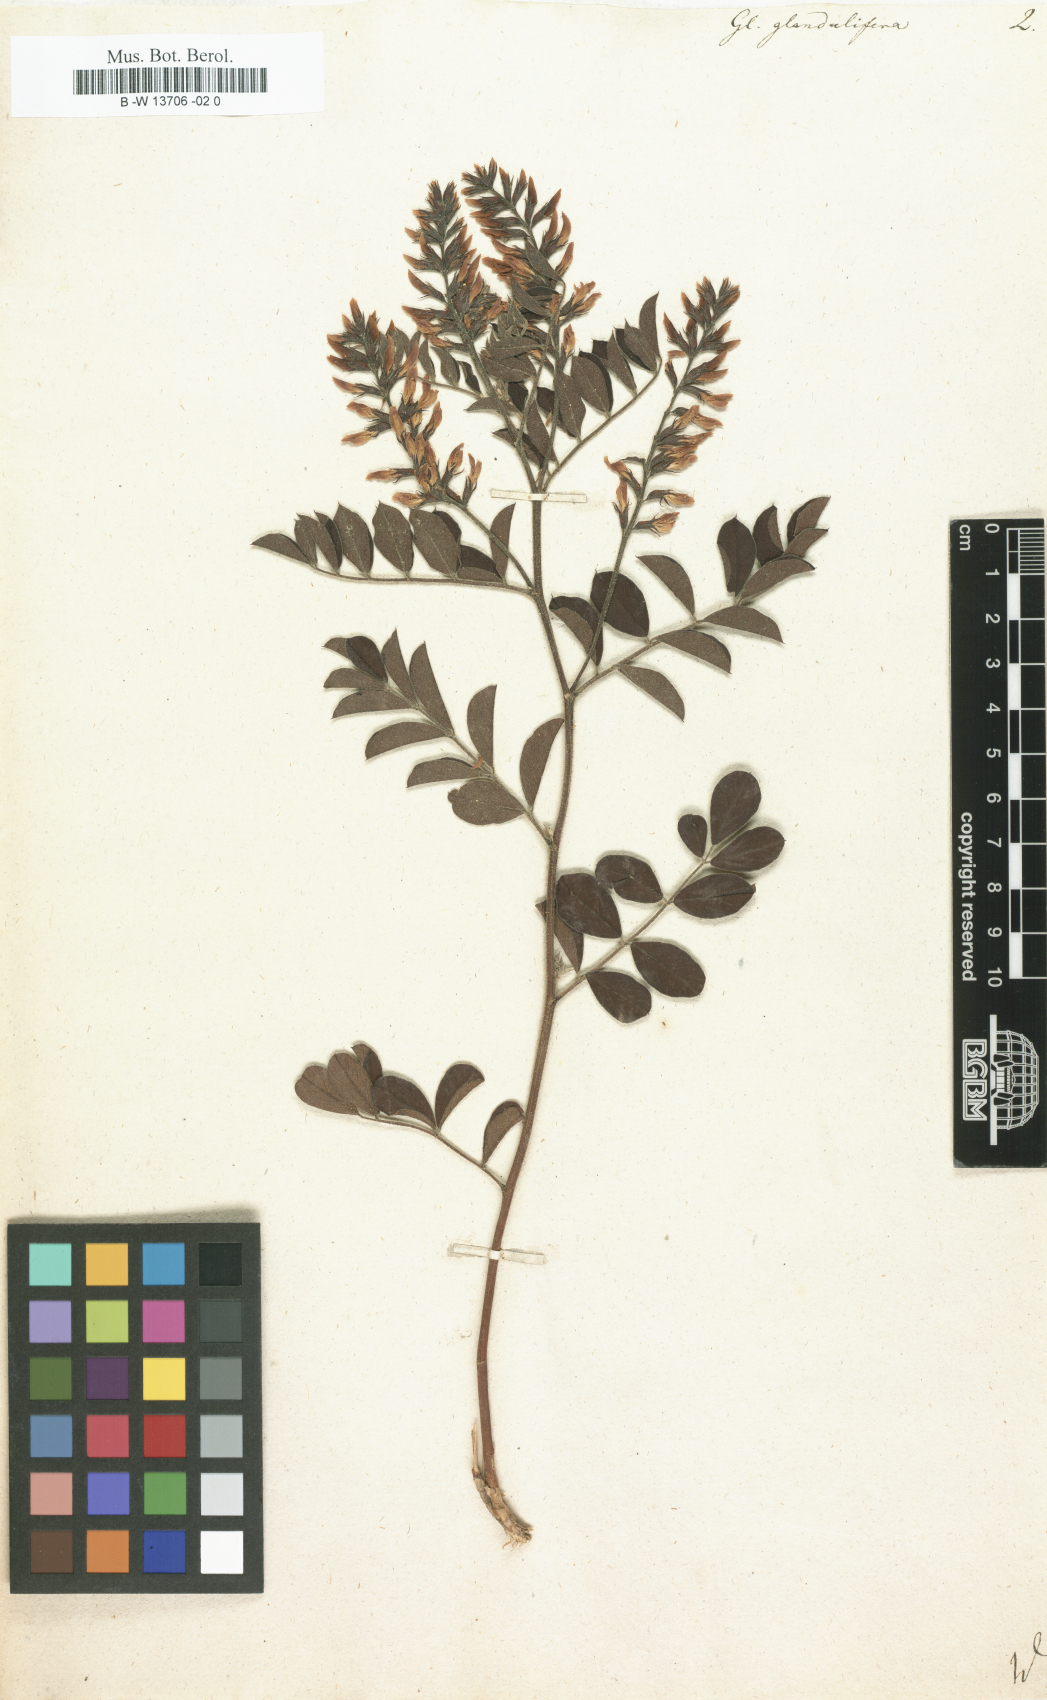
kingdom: Plantae
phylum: Tracheophyta
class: Magnoliopsida
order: Fabales
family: Fabaceae
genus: Glycyrrhiza
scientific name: Glycyrrhiza
